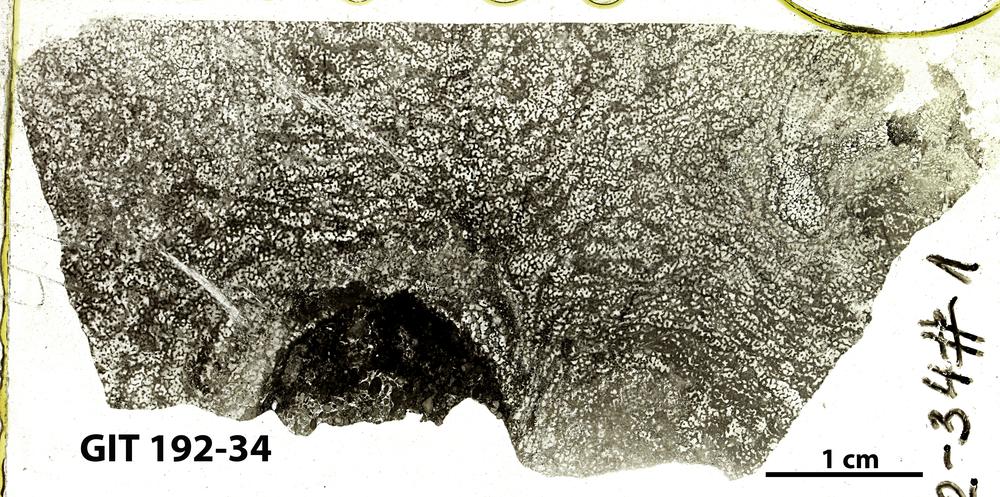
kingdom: Animalia
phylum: Porifera
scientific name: Porifera
